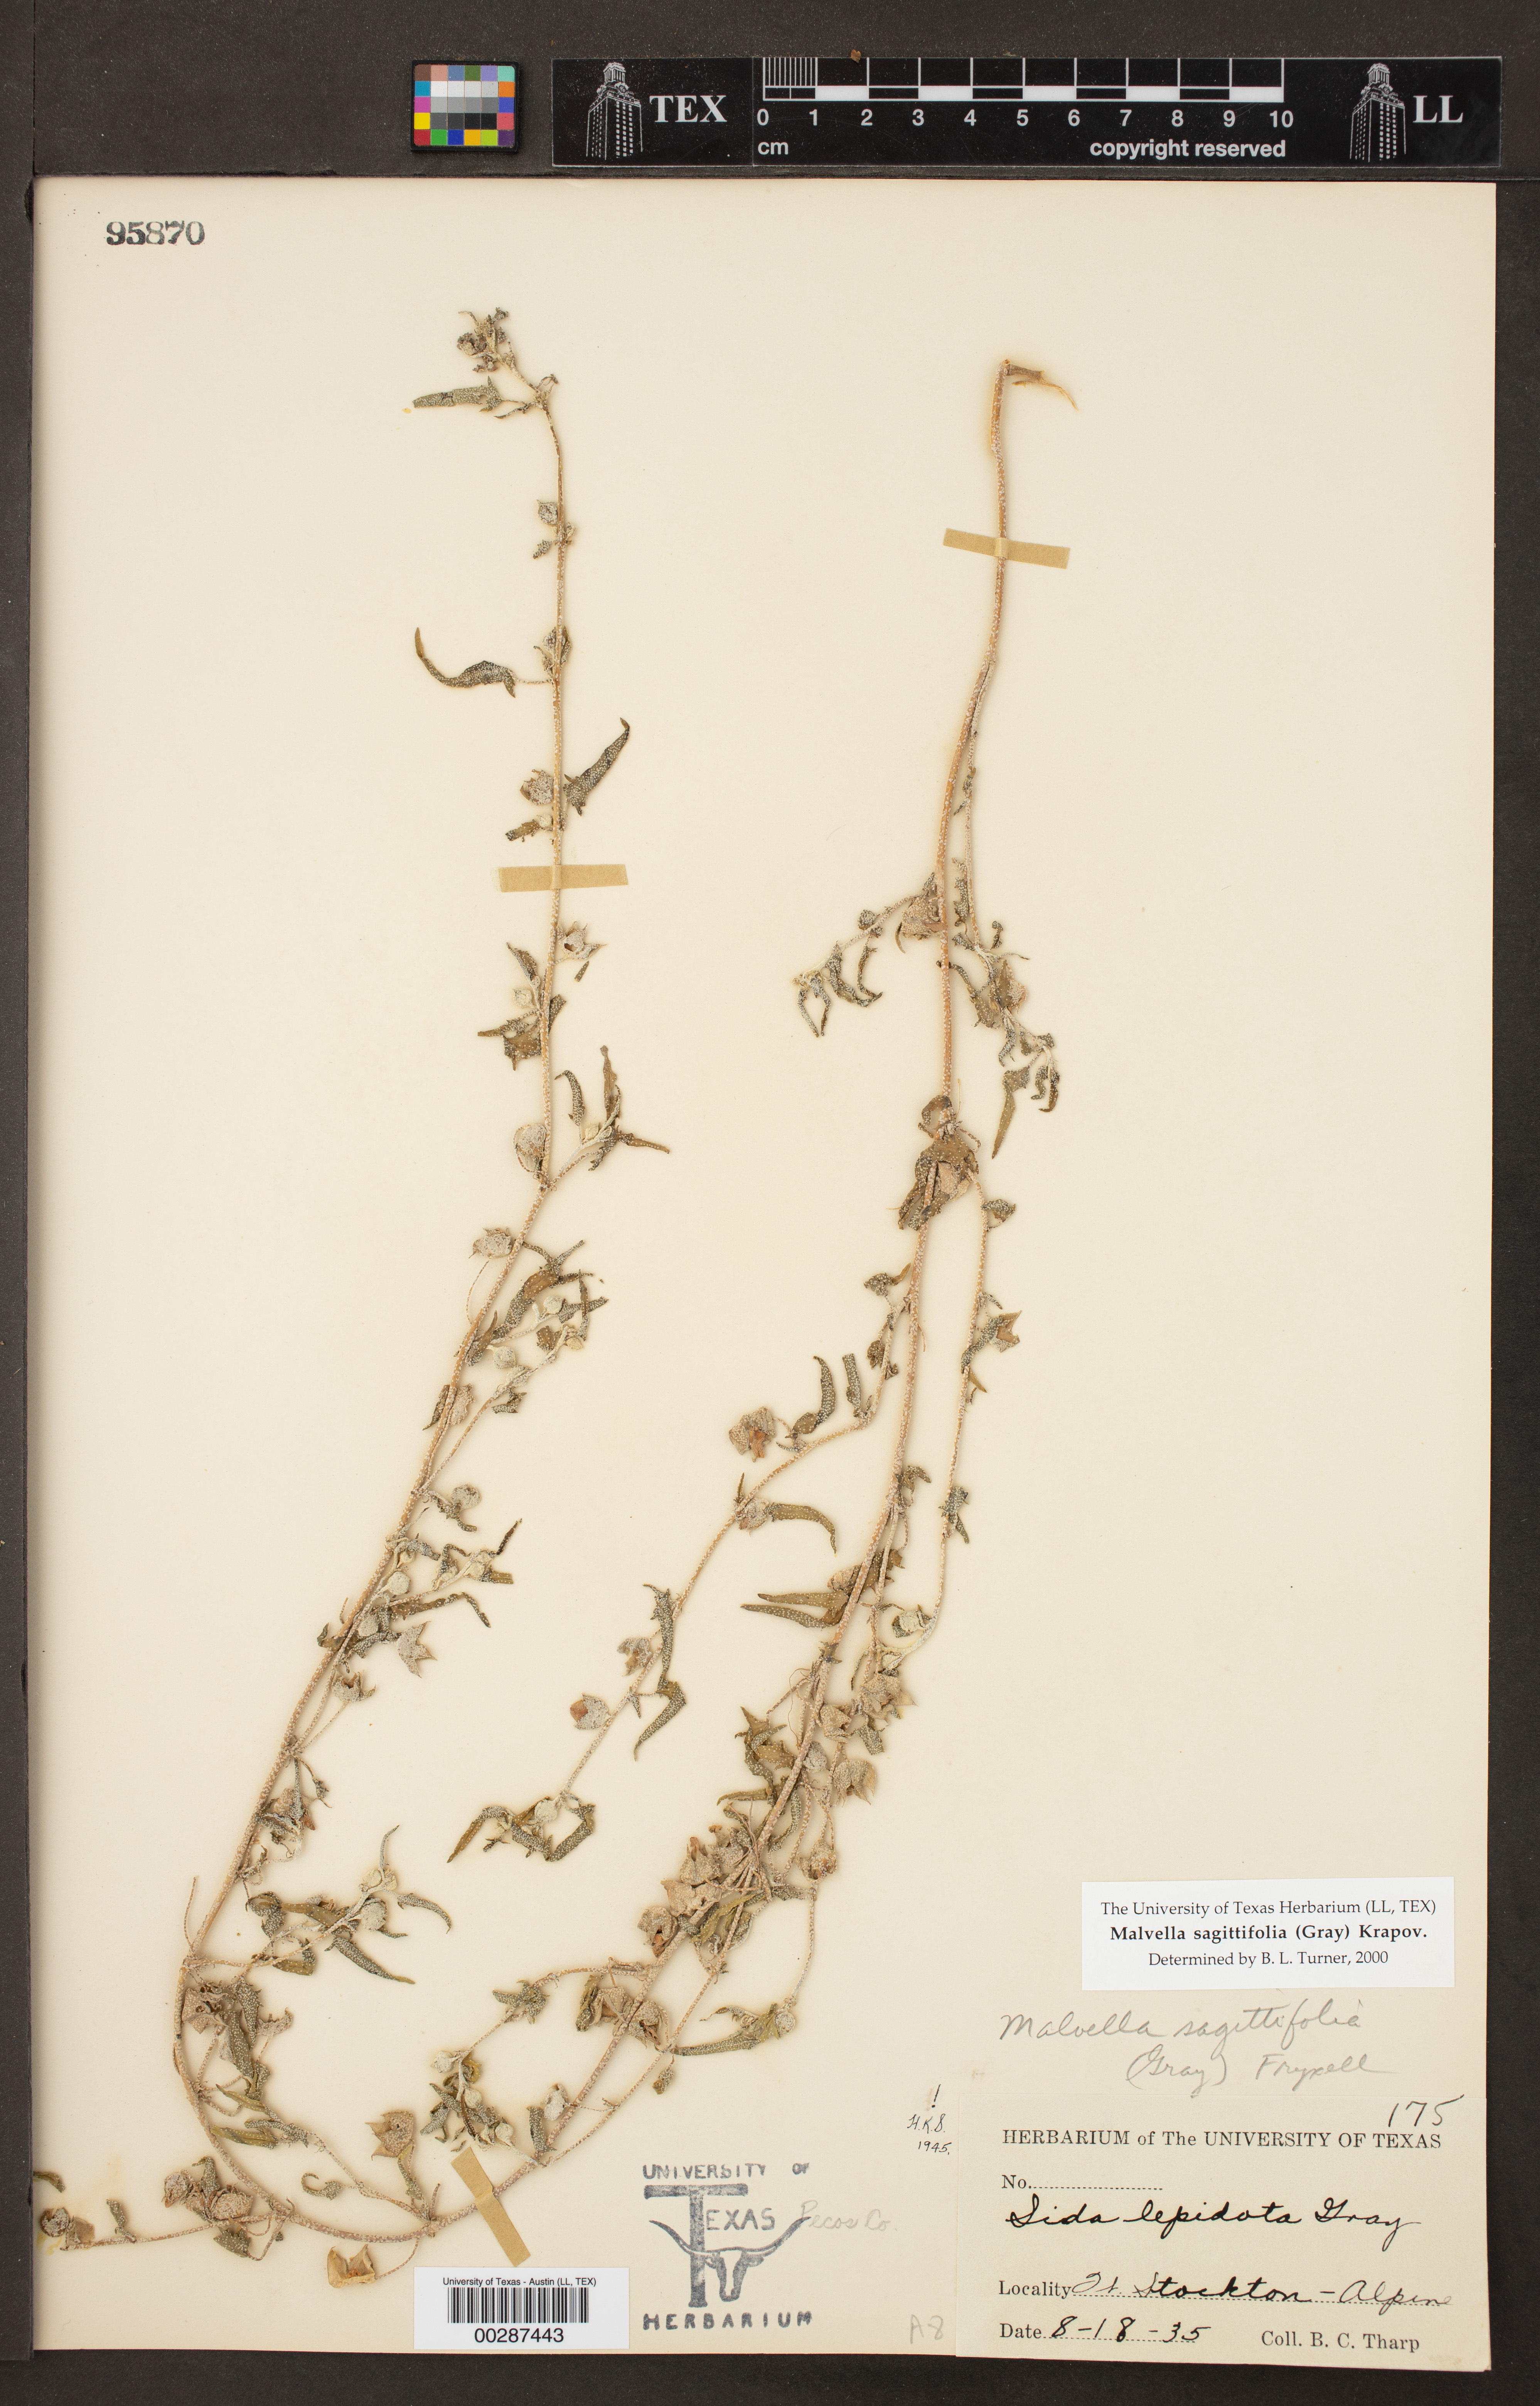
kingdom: Plantae
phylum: Tracheophyta
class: Magnoliopsida
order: Malvales
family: Malvaceae
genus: Malvella
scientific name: Malvella sagittifolia
